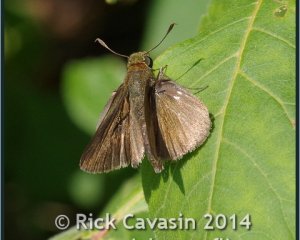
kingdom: Animalia
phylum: Arthropoda
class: Insecta
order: Lepidoptera
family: Hesperiidae
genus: Euphyes
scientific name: Euphyes vestris
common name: Dun Skipper
